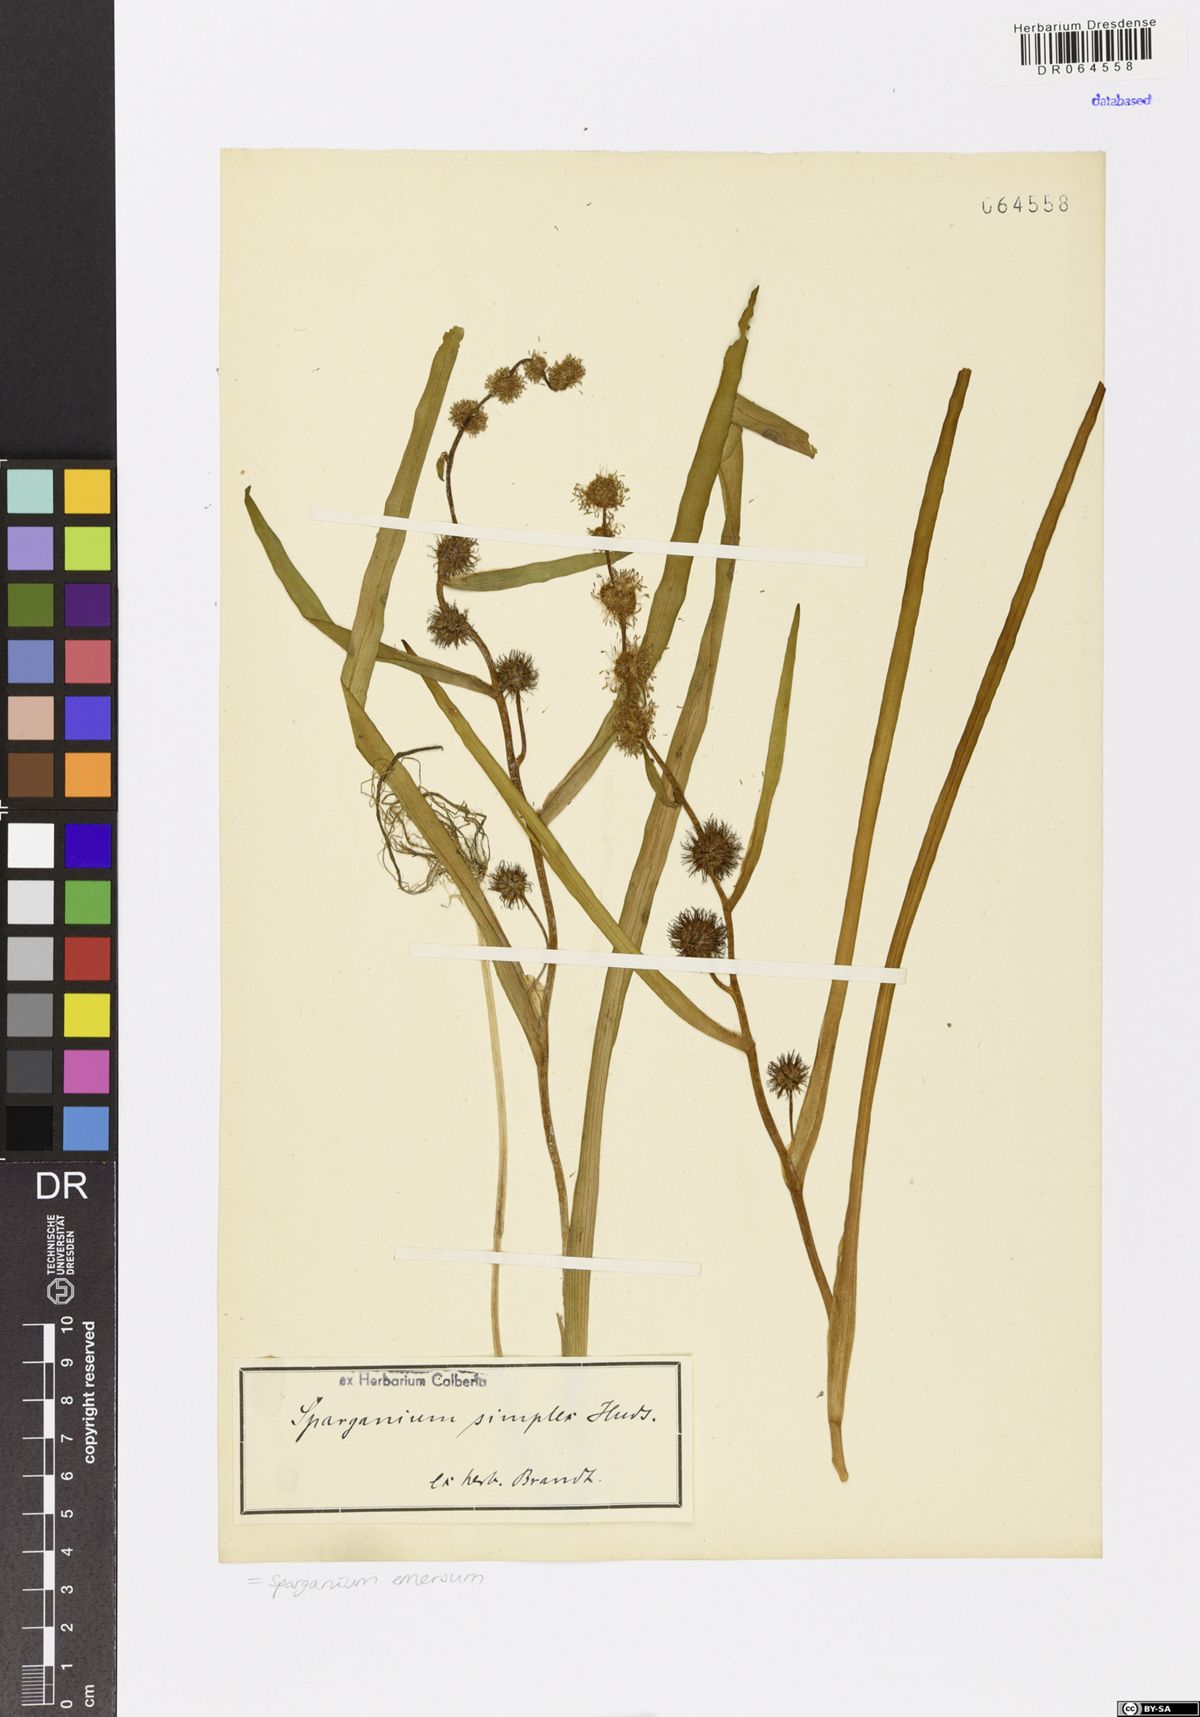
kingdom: Plantae
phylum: Tracheophyta
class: Liliopsida
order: Poales
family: Typhaceae
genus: Sparganium
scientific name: Sparganium emersum
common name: Unbranched bur-reed
